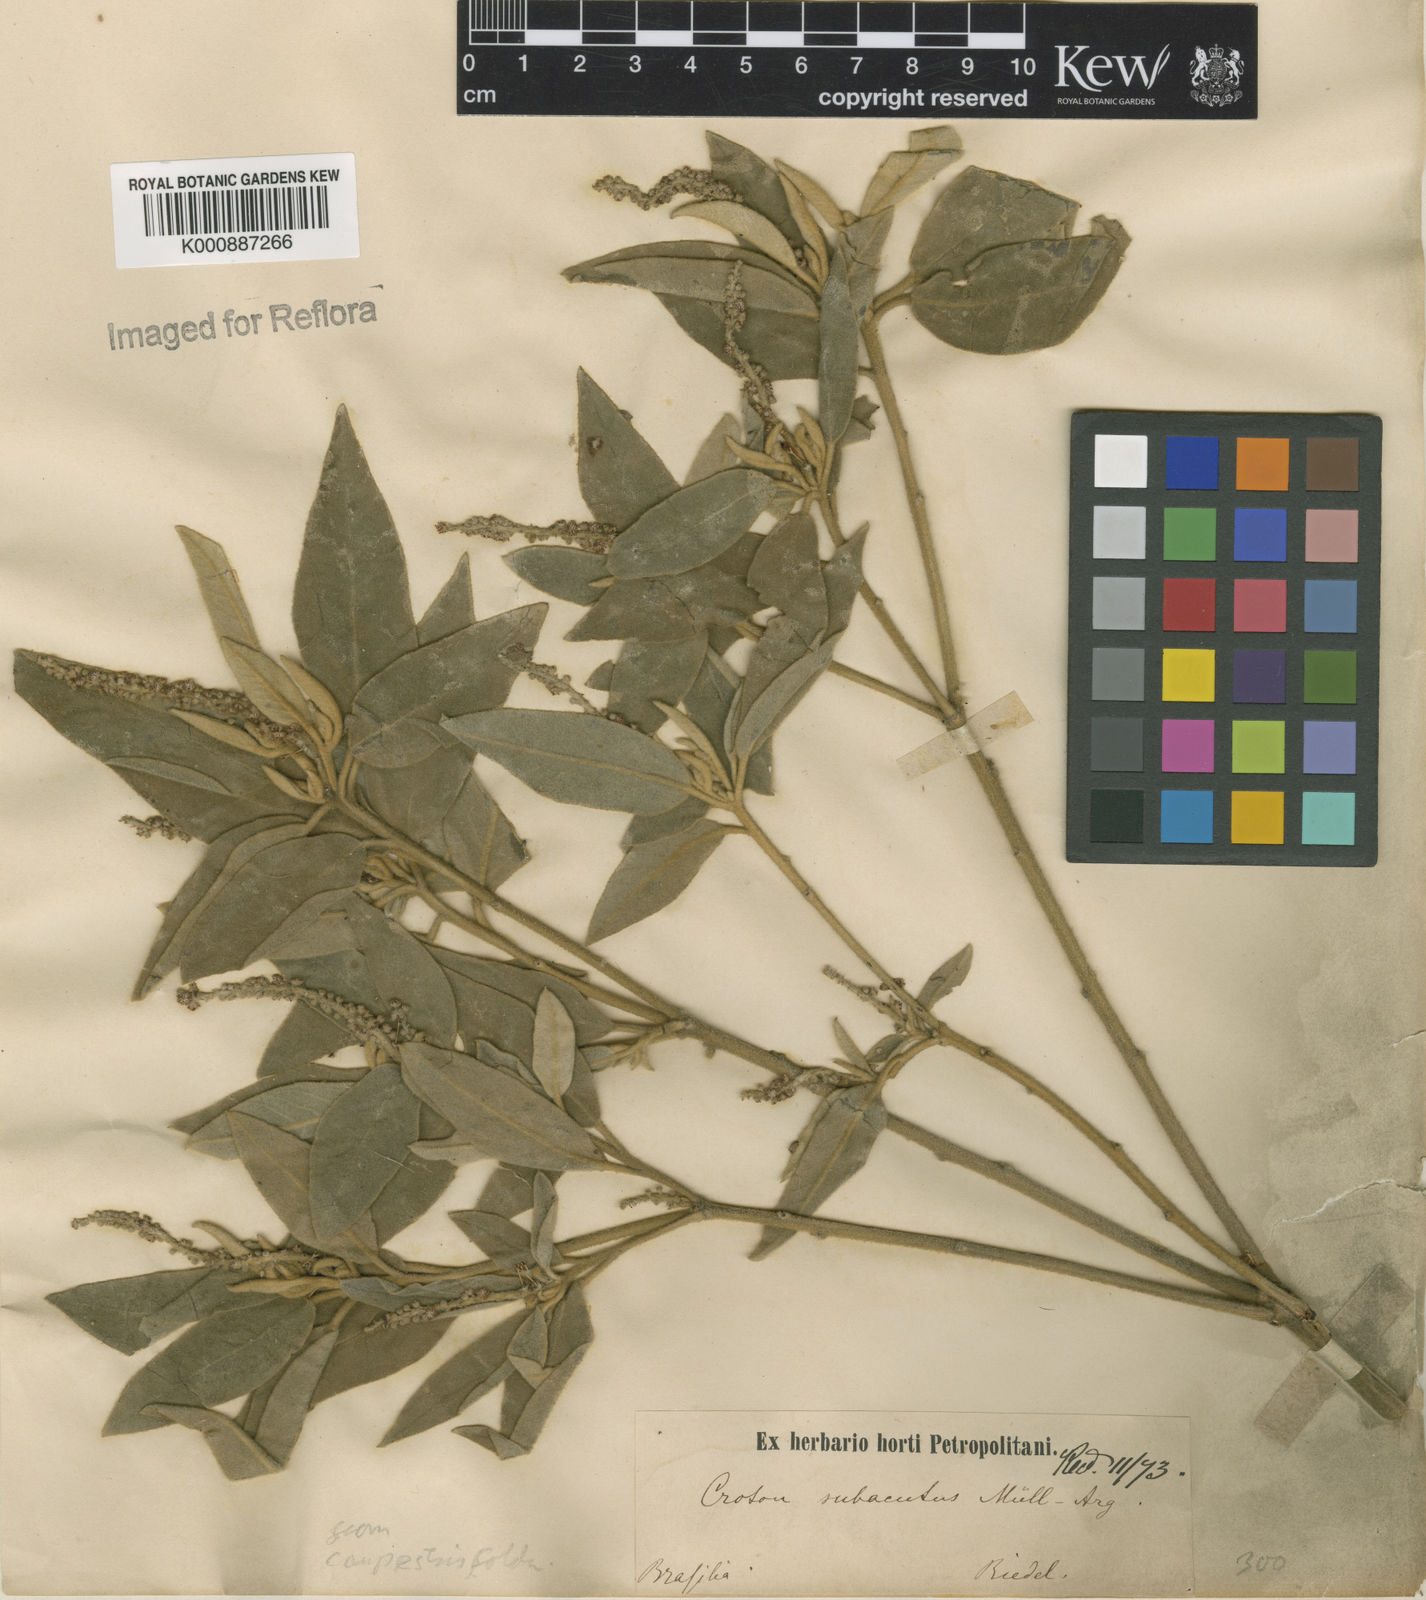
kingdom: Plantae
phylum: Tracheophyta
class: Magnoliopsida
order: Malpighiales
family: Euphorbiaceae
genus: Croton
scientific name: Croton campestris
